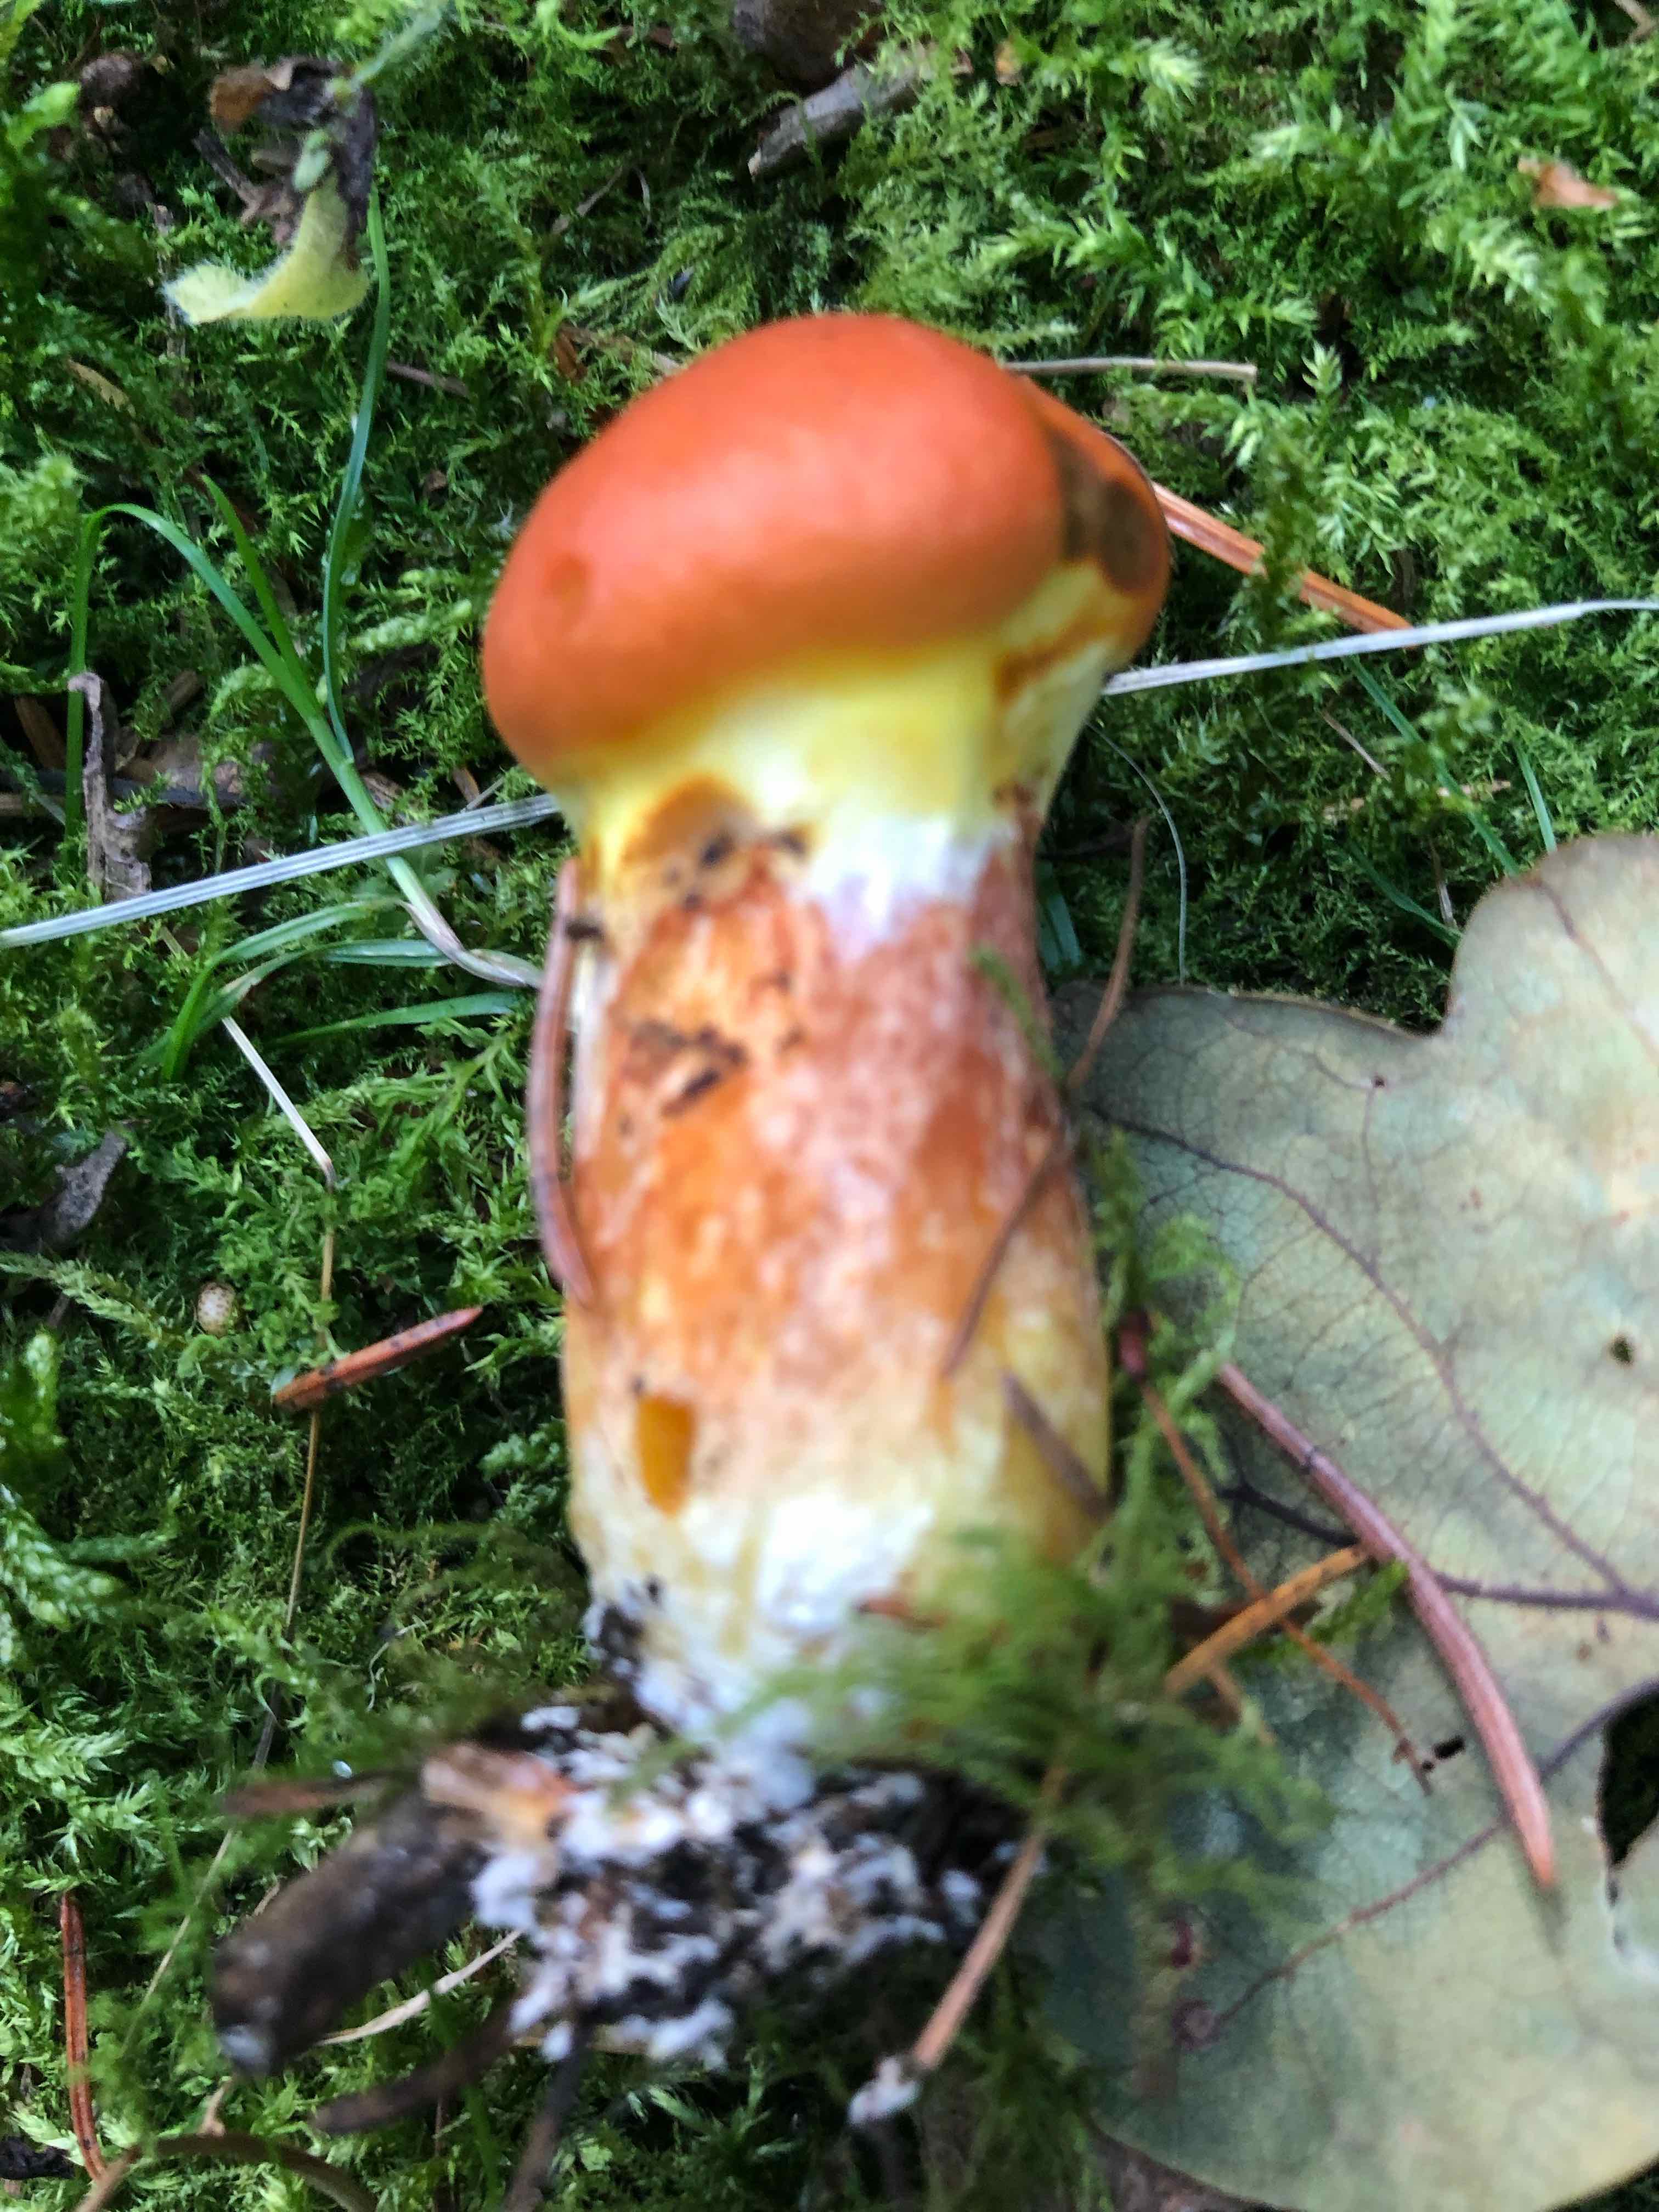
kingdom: Fungi
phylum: Basidiomycota
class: Agaricomycetes
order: Boletales
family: Suillaceae
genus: Suillus
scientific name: Suillus grevillei
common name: lærke-slimrørhat
